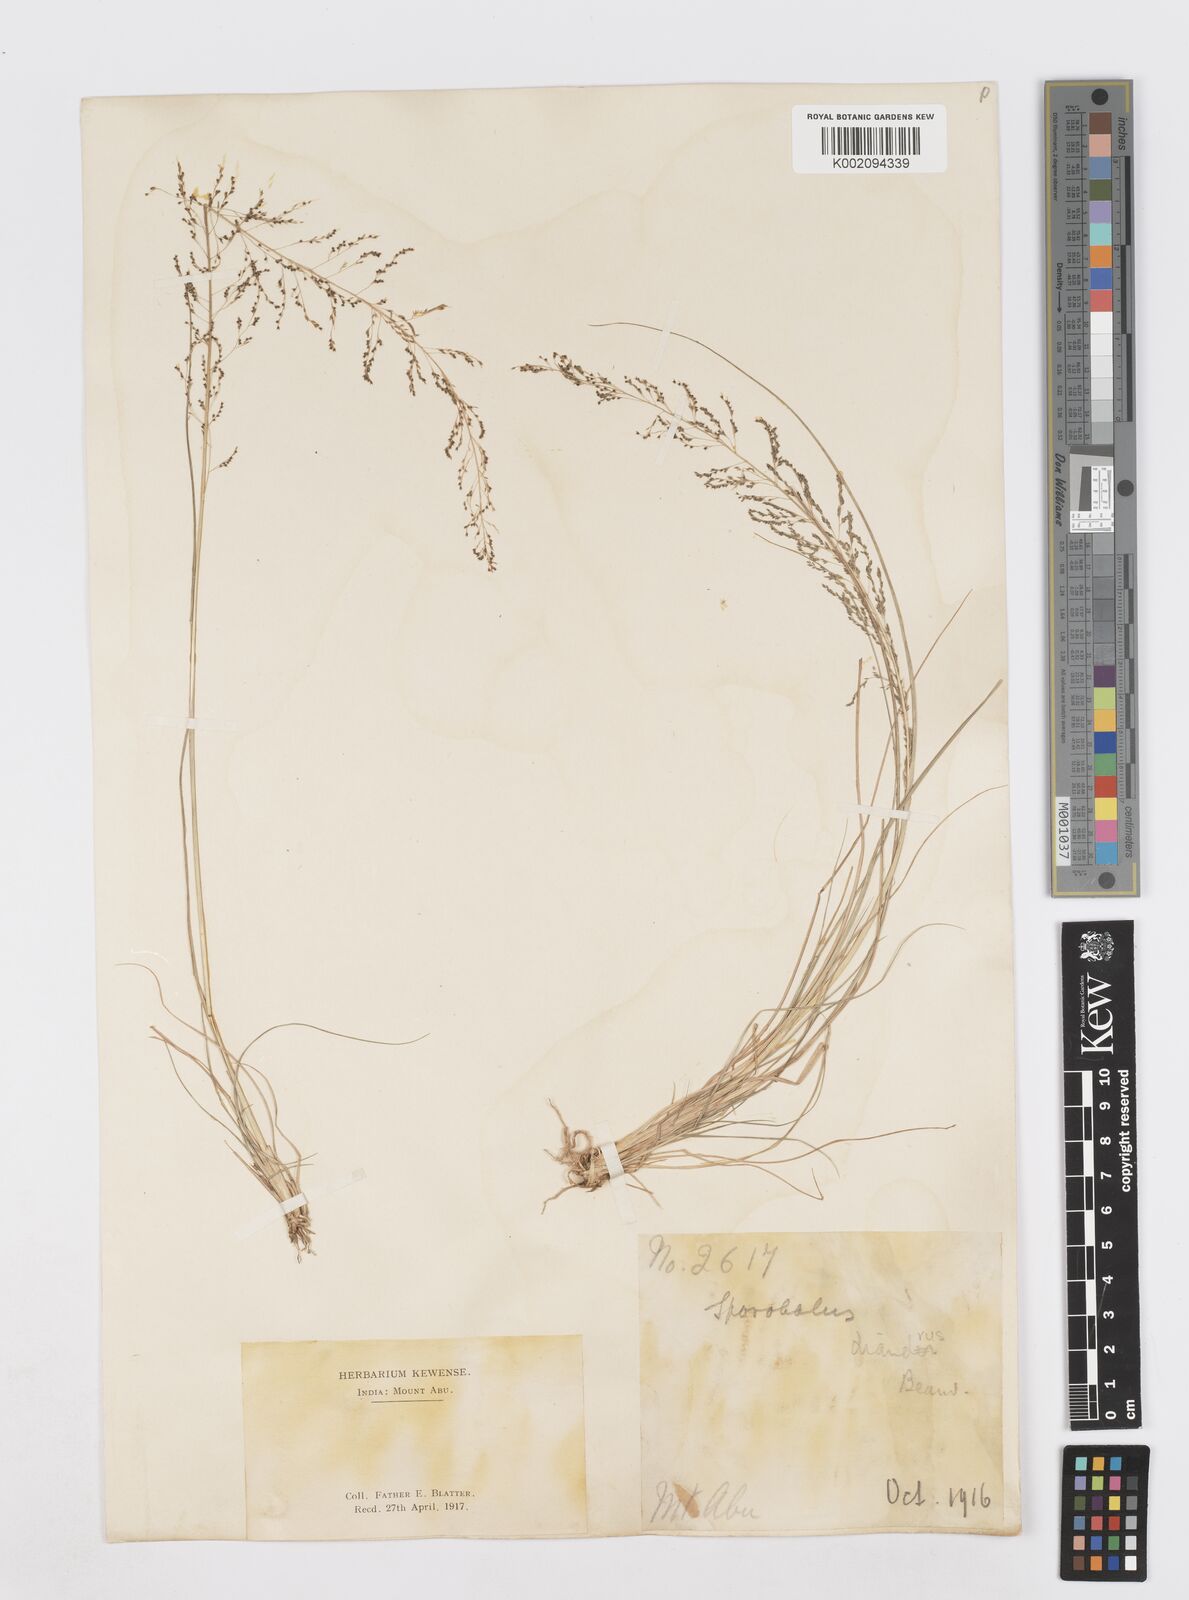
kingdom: Plantae
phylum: Tracheophyta
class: Liliopsida
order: Poales
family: Poaceae
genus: Sporobolus
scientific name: Sporobolus diandrus
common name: Tussock dropseed
